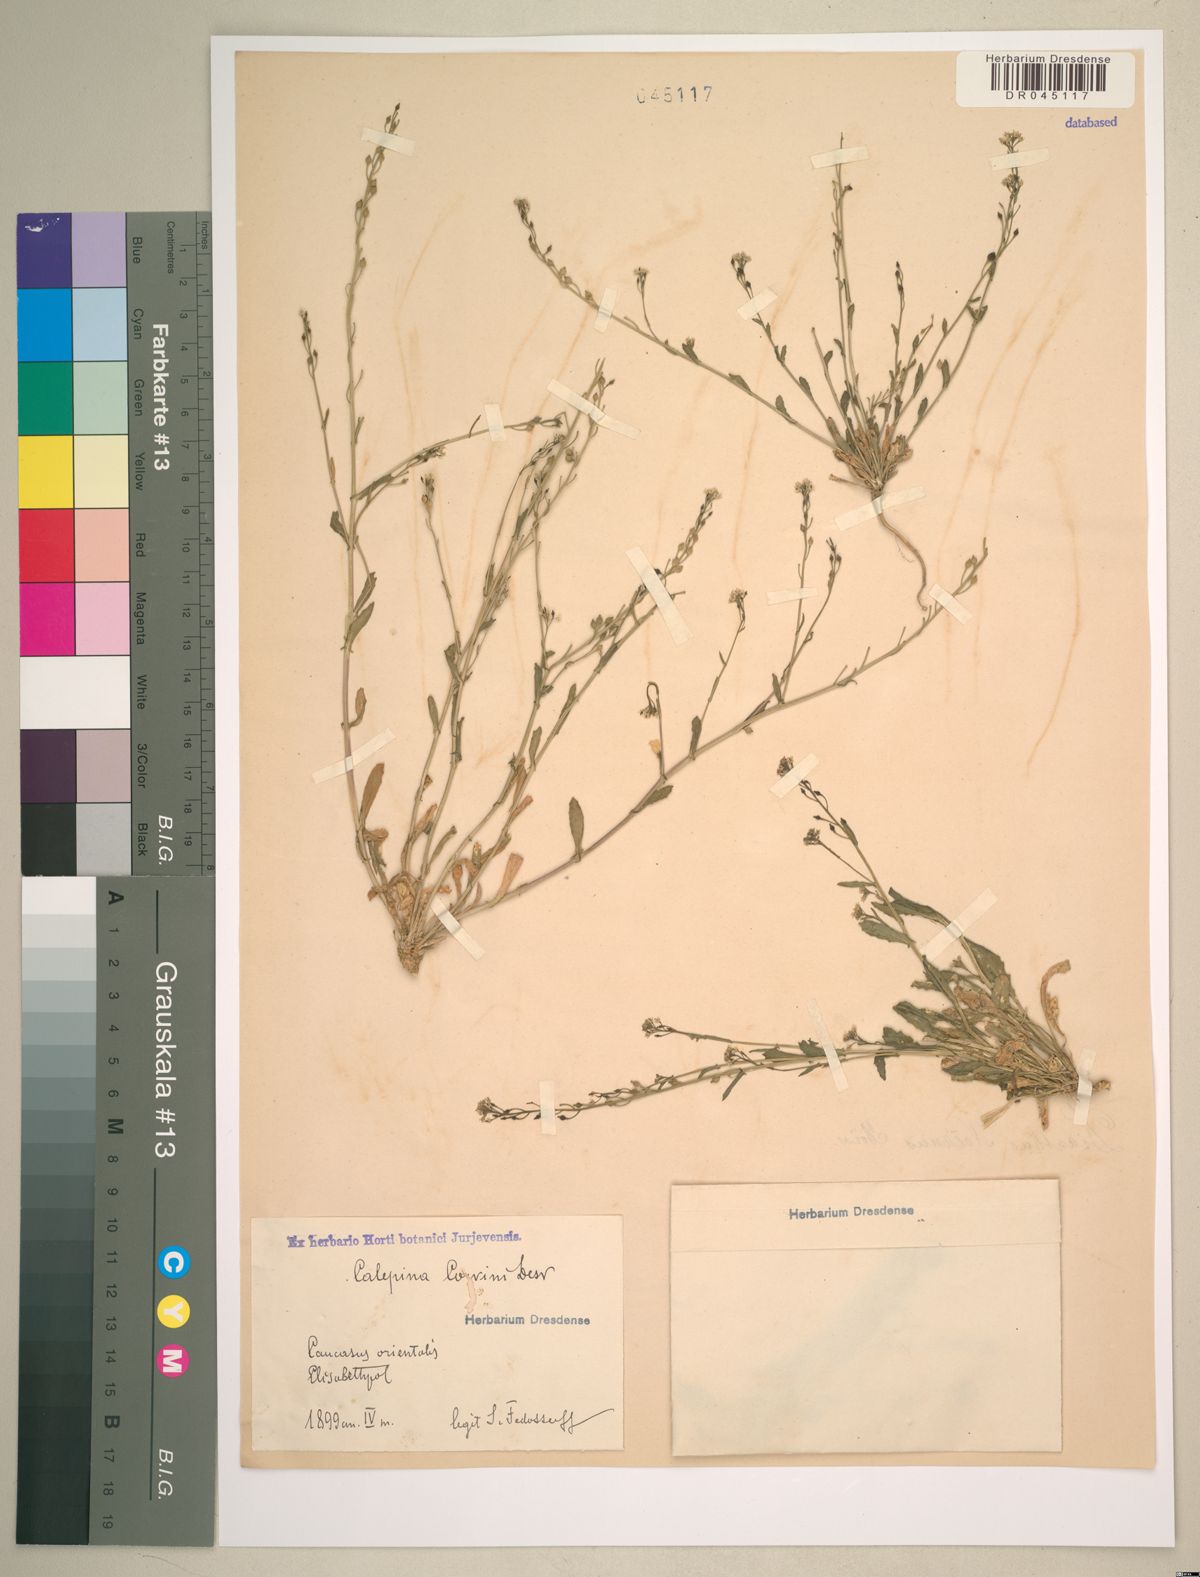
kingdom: Plantae
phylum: Tracheophyta
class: Magnoliopsida
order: Brassicales
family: Brassicaceae
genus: Calepina
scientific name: Calepina irregularis
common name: White ballmustard
